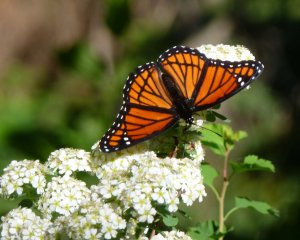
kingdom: Animalia
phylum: Arthropoda
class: Insecta
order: Lepidoptera
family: Nymphalidae
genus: Limenitis
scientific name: Limenitis archippus
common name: Viceroy
